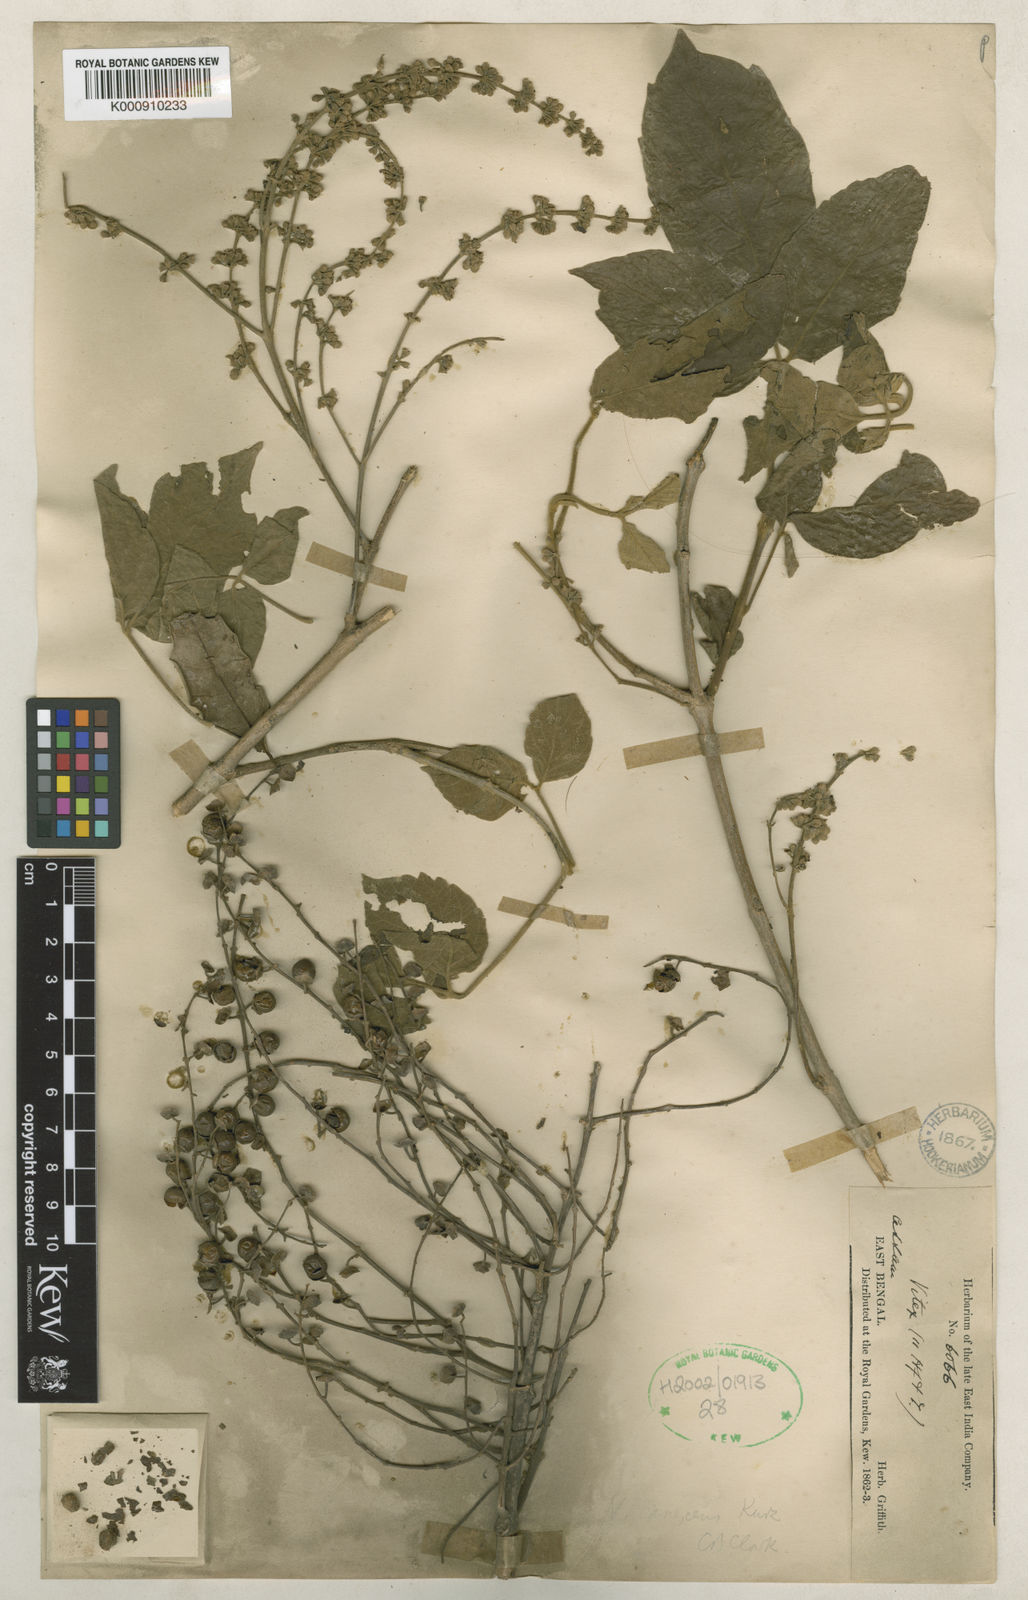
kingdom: Plantae
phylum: Tracheophyta
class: Magnoliopsida
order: Lamiales
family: Lamiaceae
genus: Vitex
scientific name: Vitex canescens
